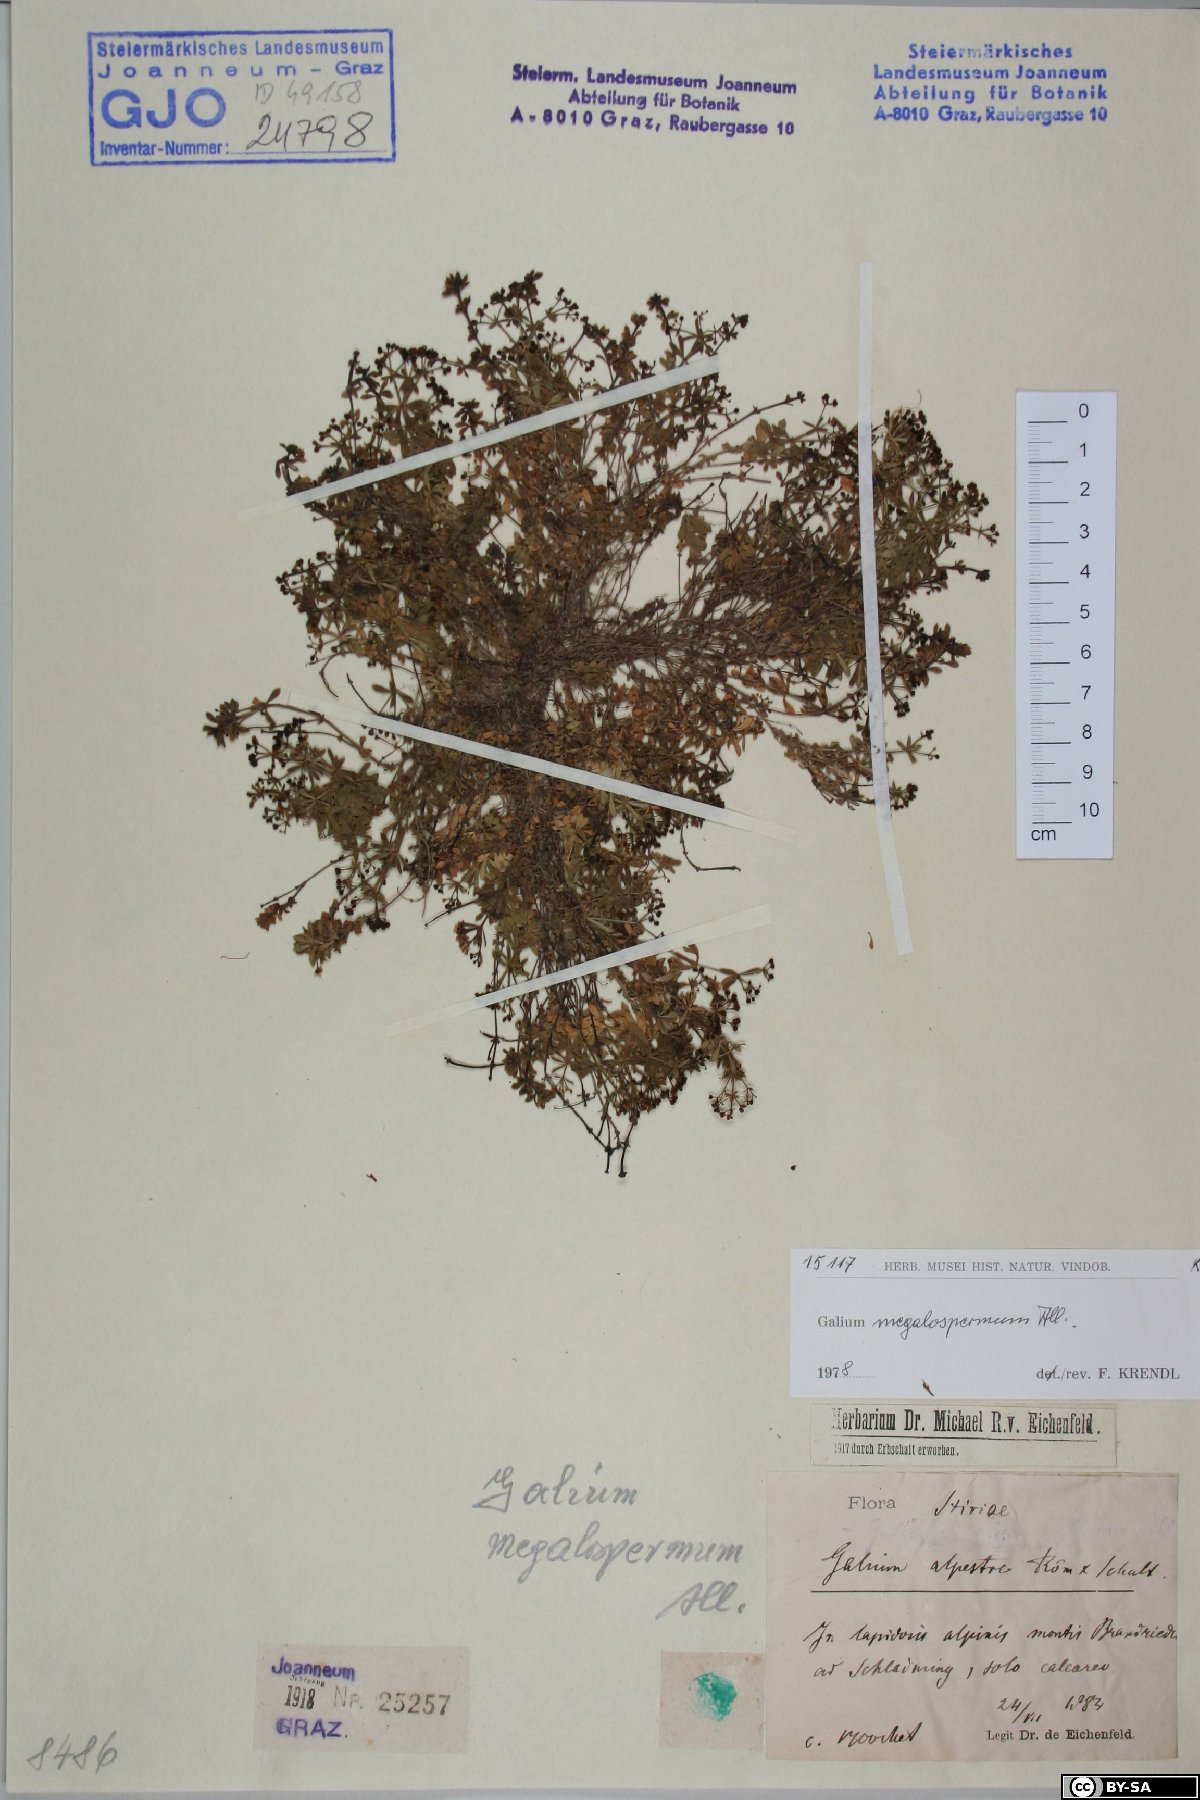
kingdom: Plantae
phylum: Tracheophyta
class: Magnoliopsida
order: Gentianales
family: Rubiaceae
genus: Galium
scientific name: Galium megalospermum
